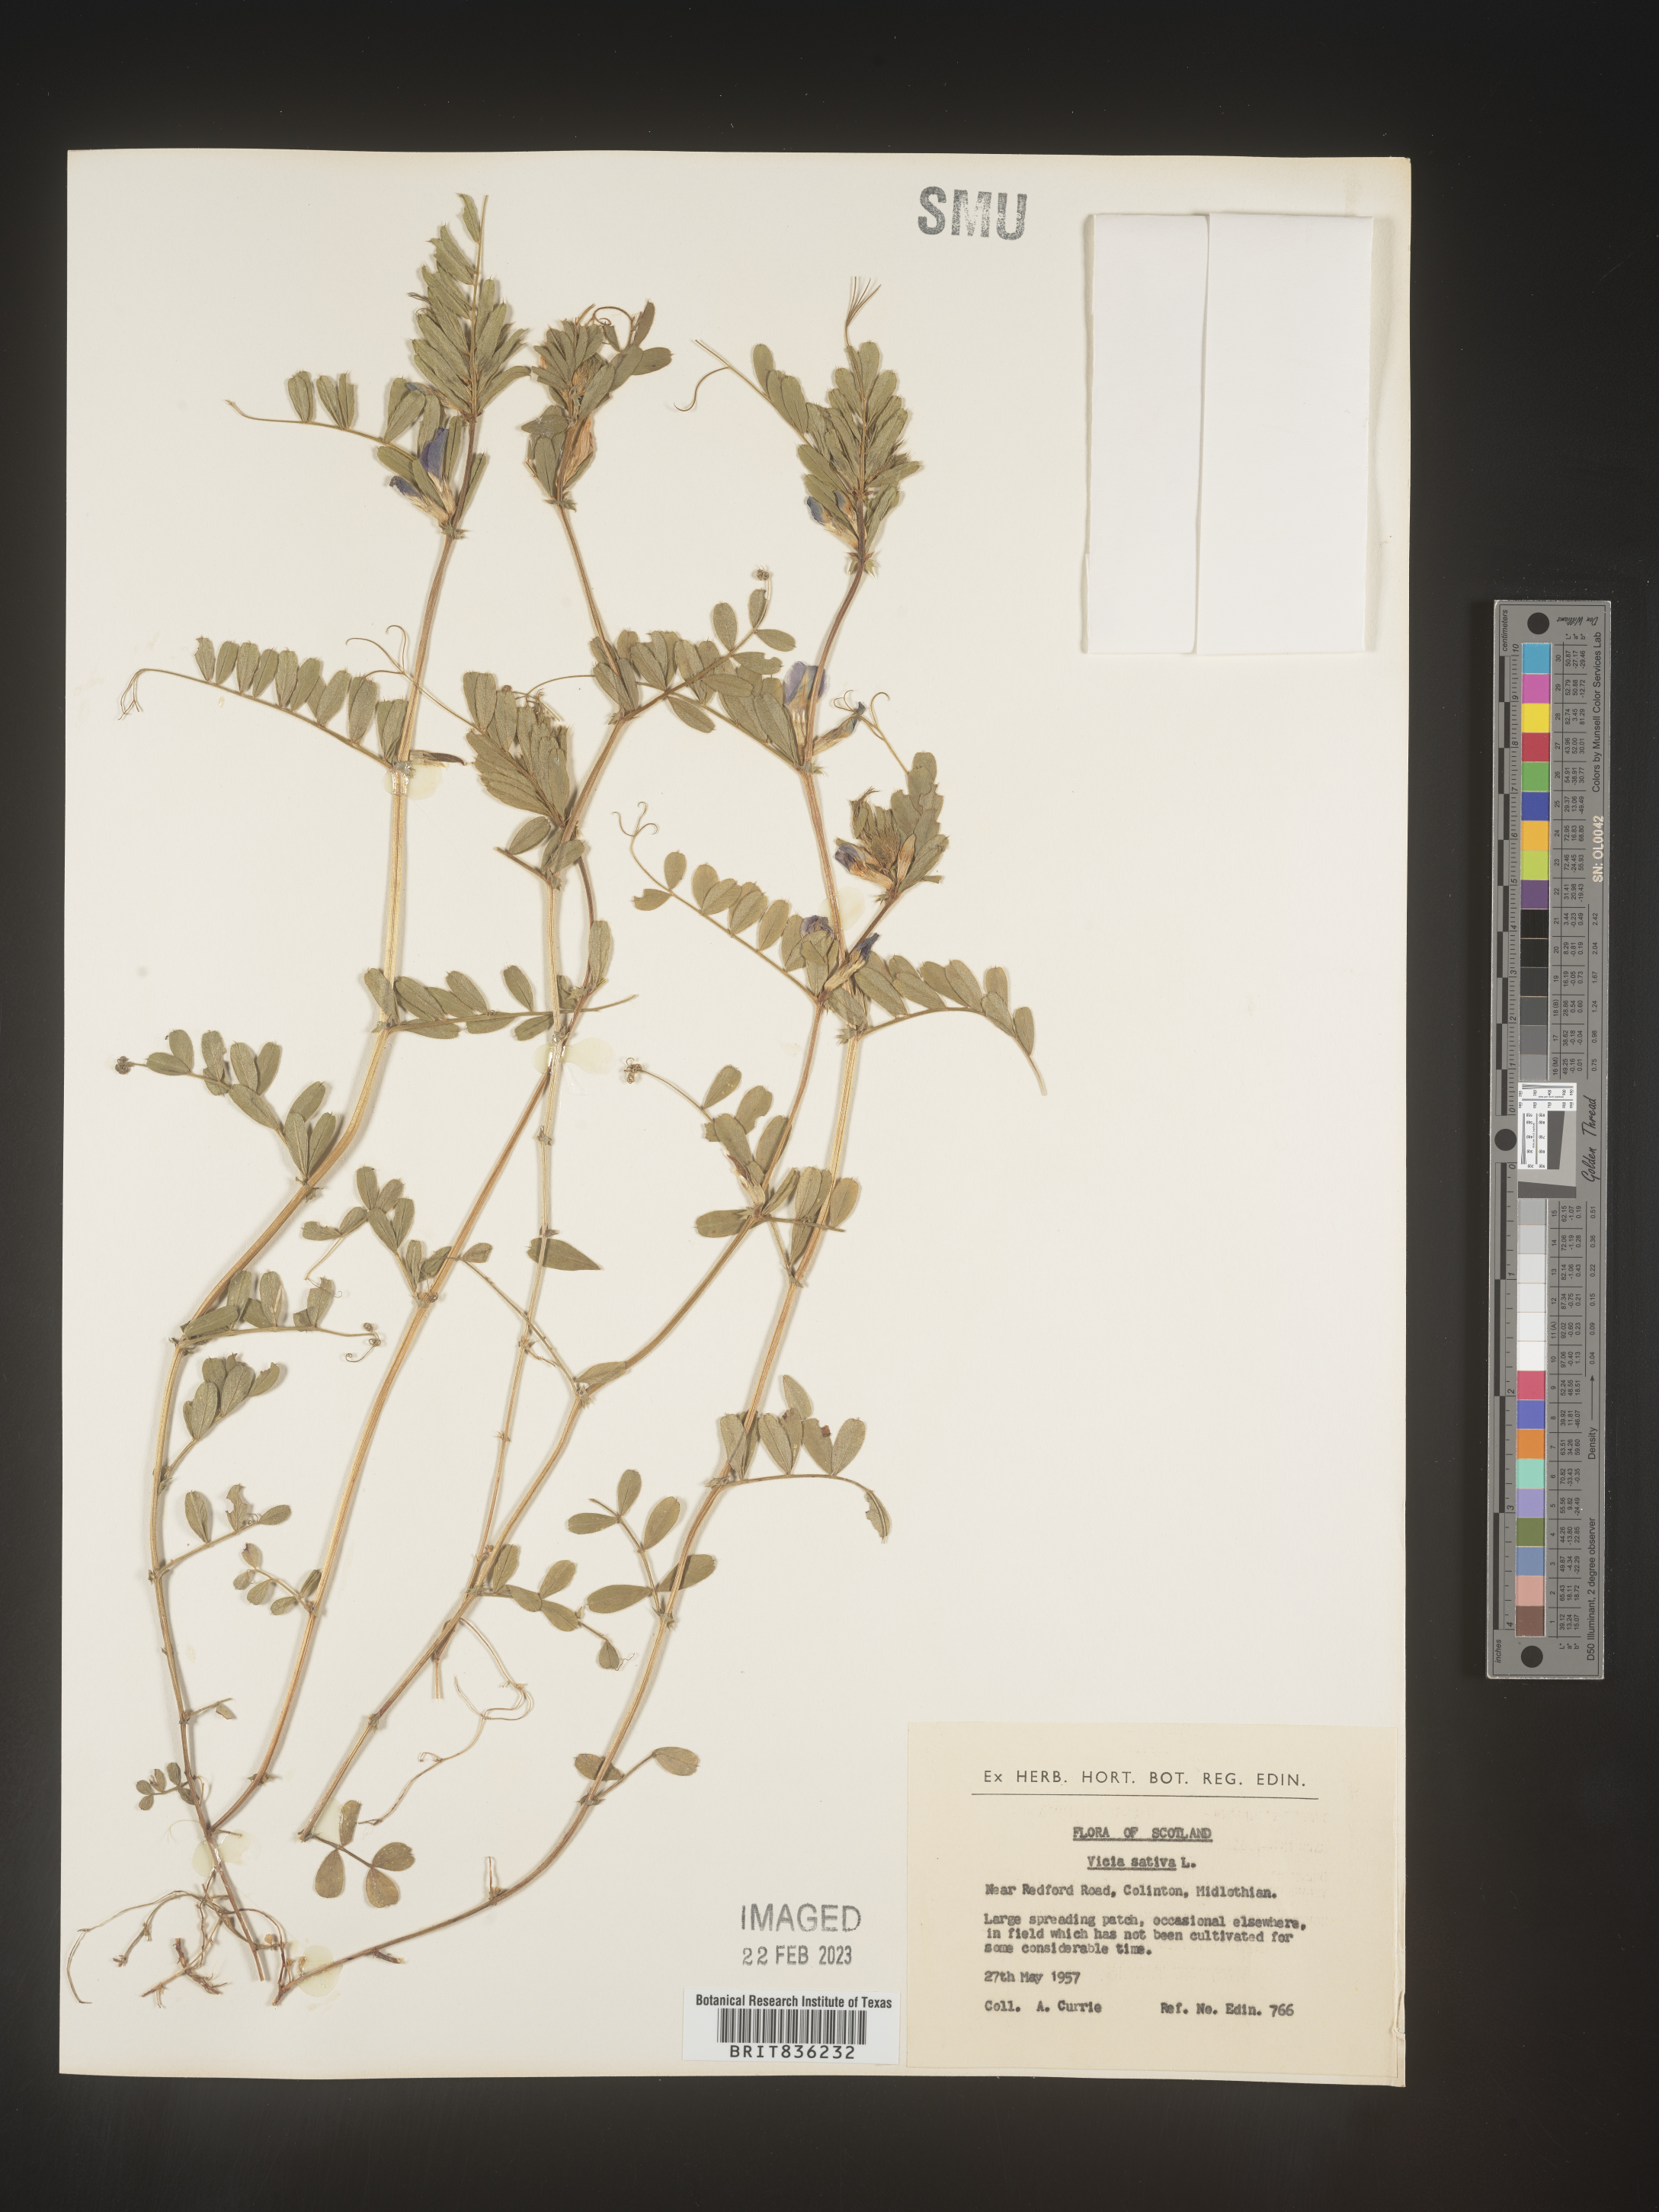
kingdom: Plantae
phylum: Tracheophyta
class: Magnoliopsida
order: Fabales
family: Fabaceae
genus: Vicia
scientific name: Vicia
